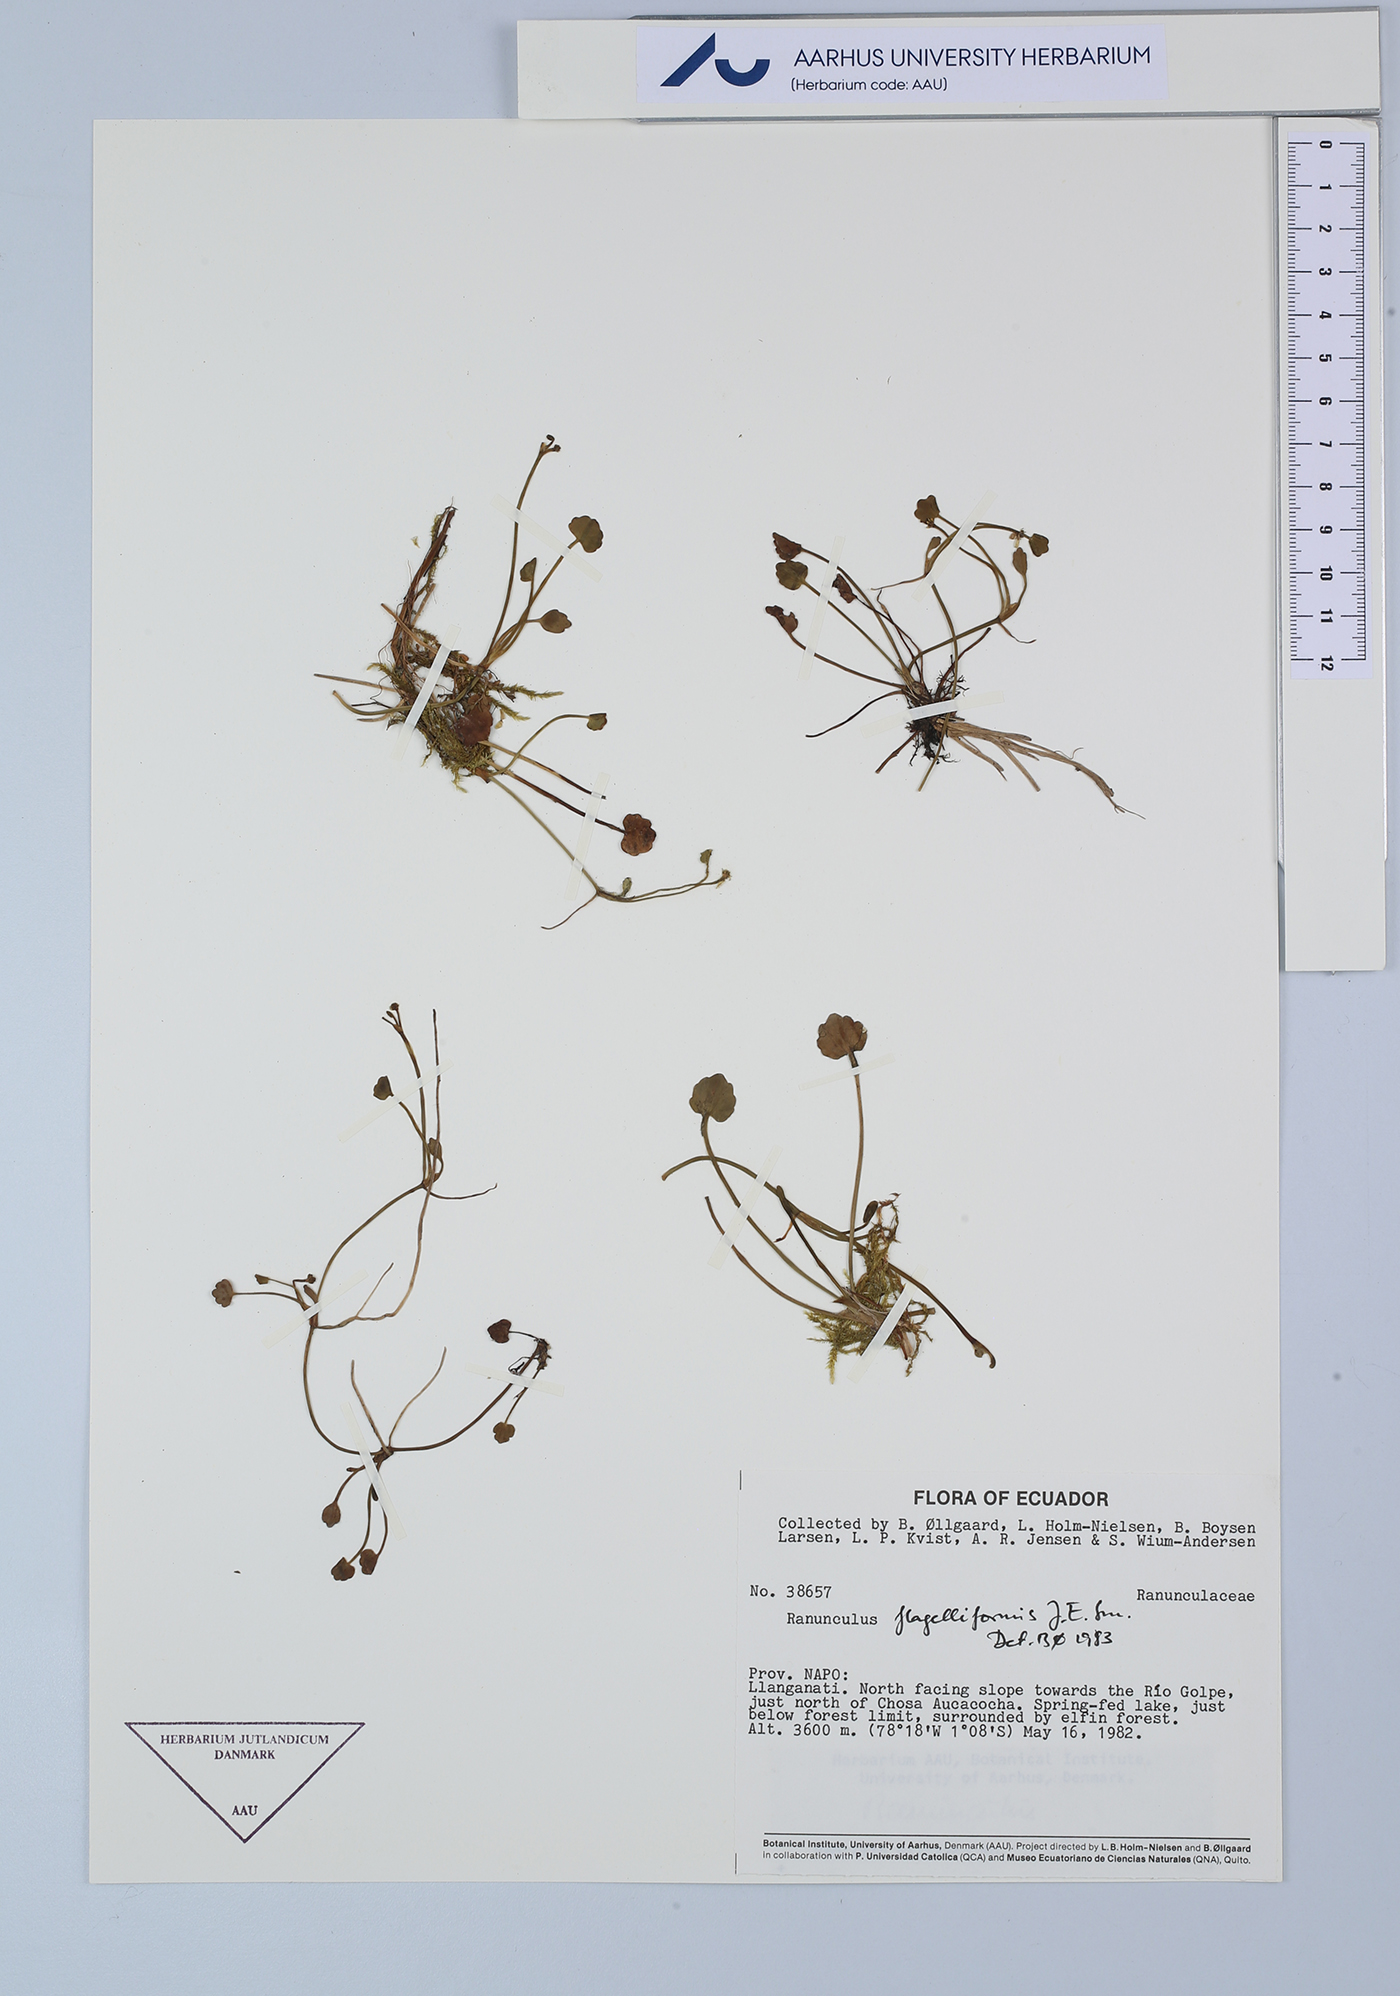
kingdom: Plantae
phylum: Tracheophyta
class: Magnoliopsida
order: Ranunculales
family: Ranunculaceae
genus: Ranunculus
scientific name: Ranunculus flagelliformis
